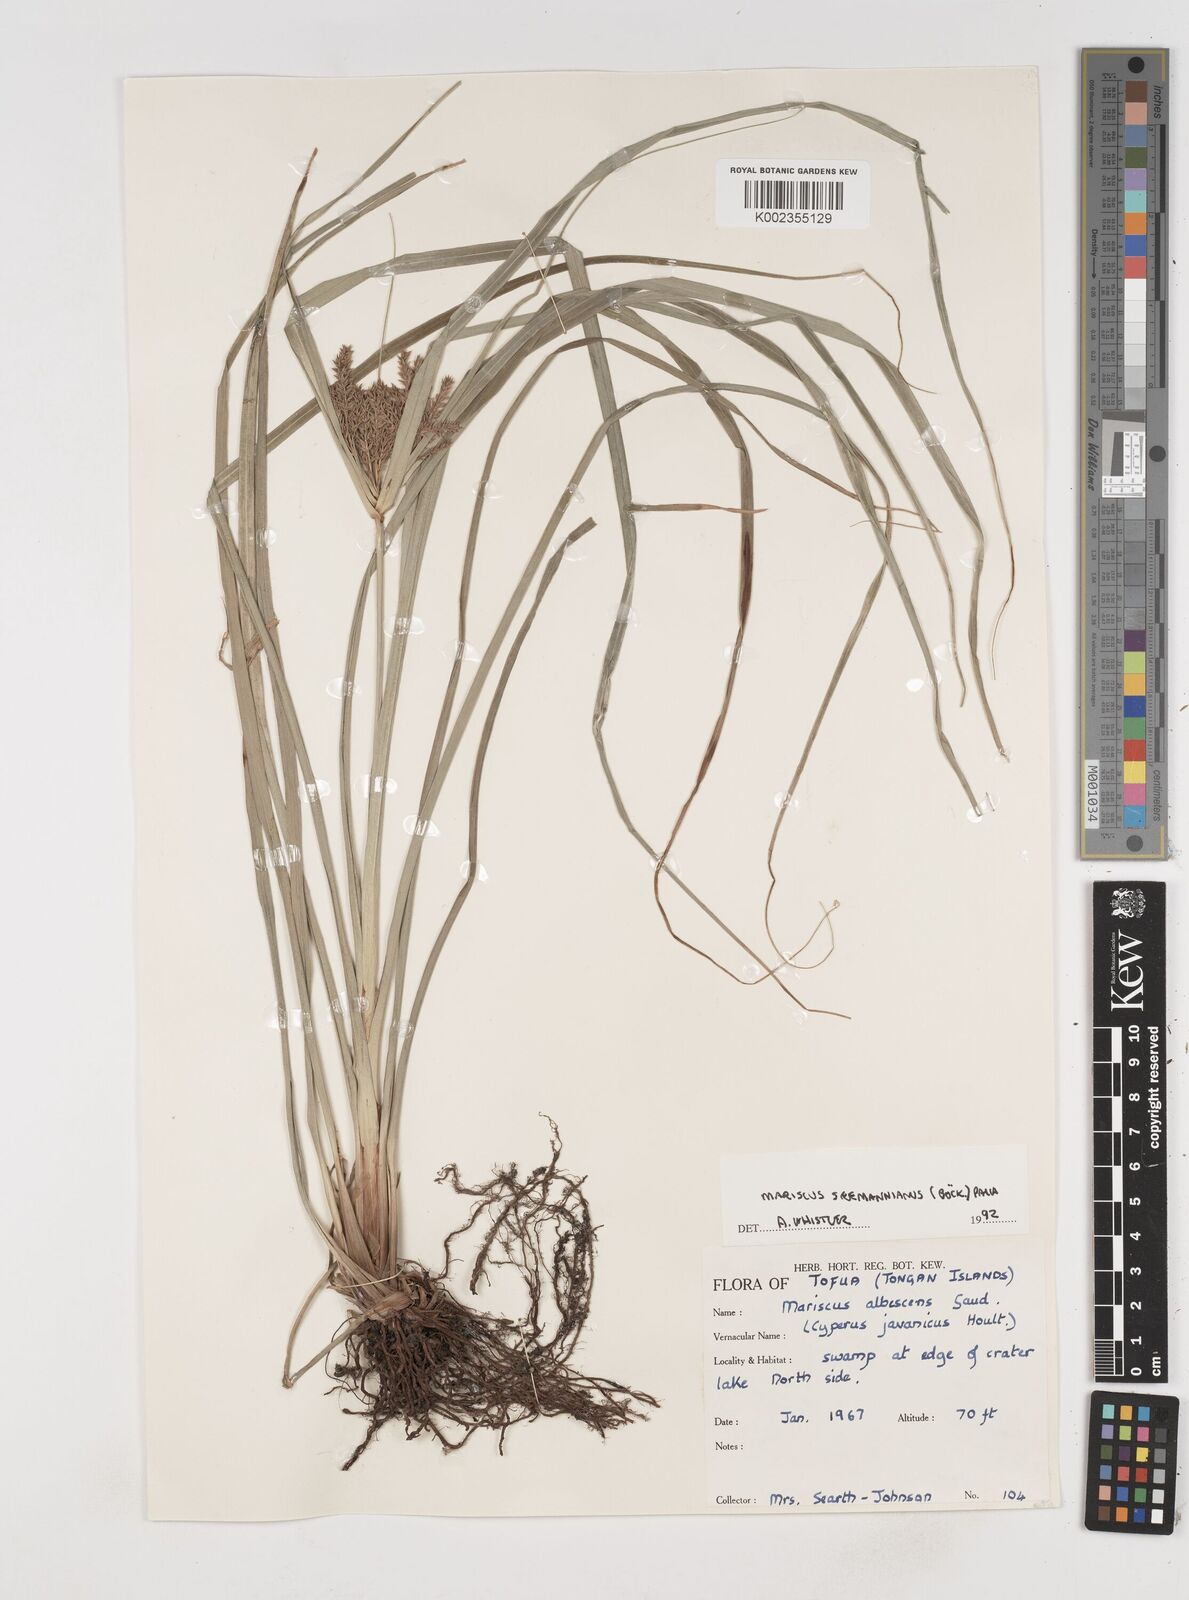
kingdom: Plantae
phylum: Tracheophyta
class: Liliopsida
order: Poales
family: Cyperaceae
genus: Cyperus
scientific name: Cyperus seemannianus
